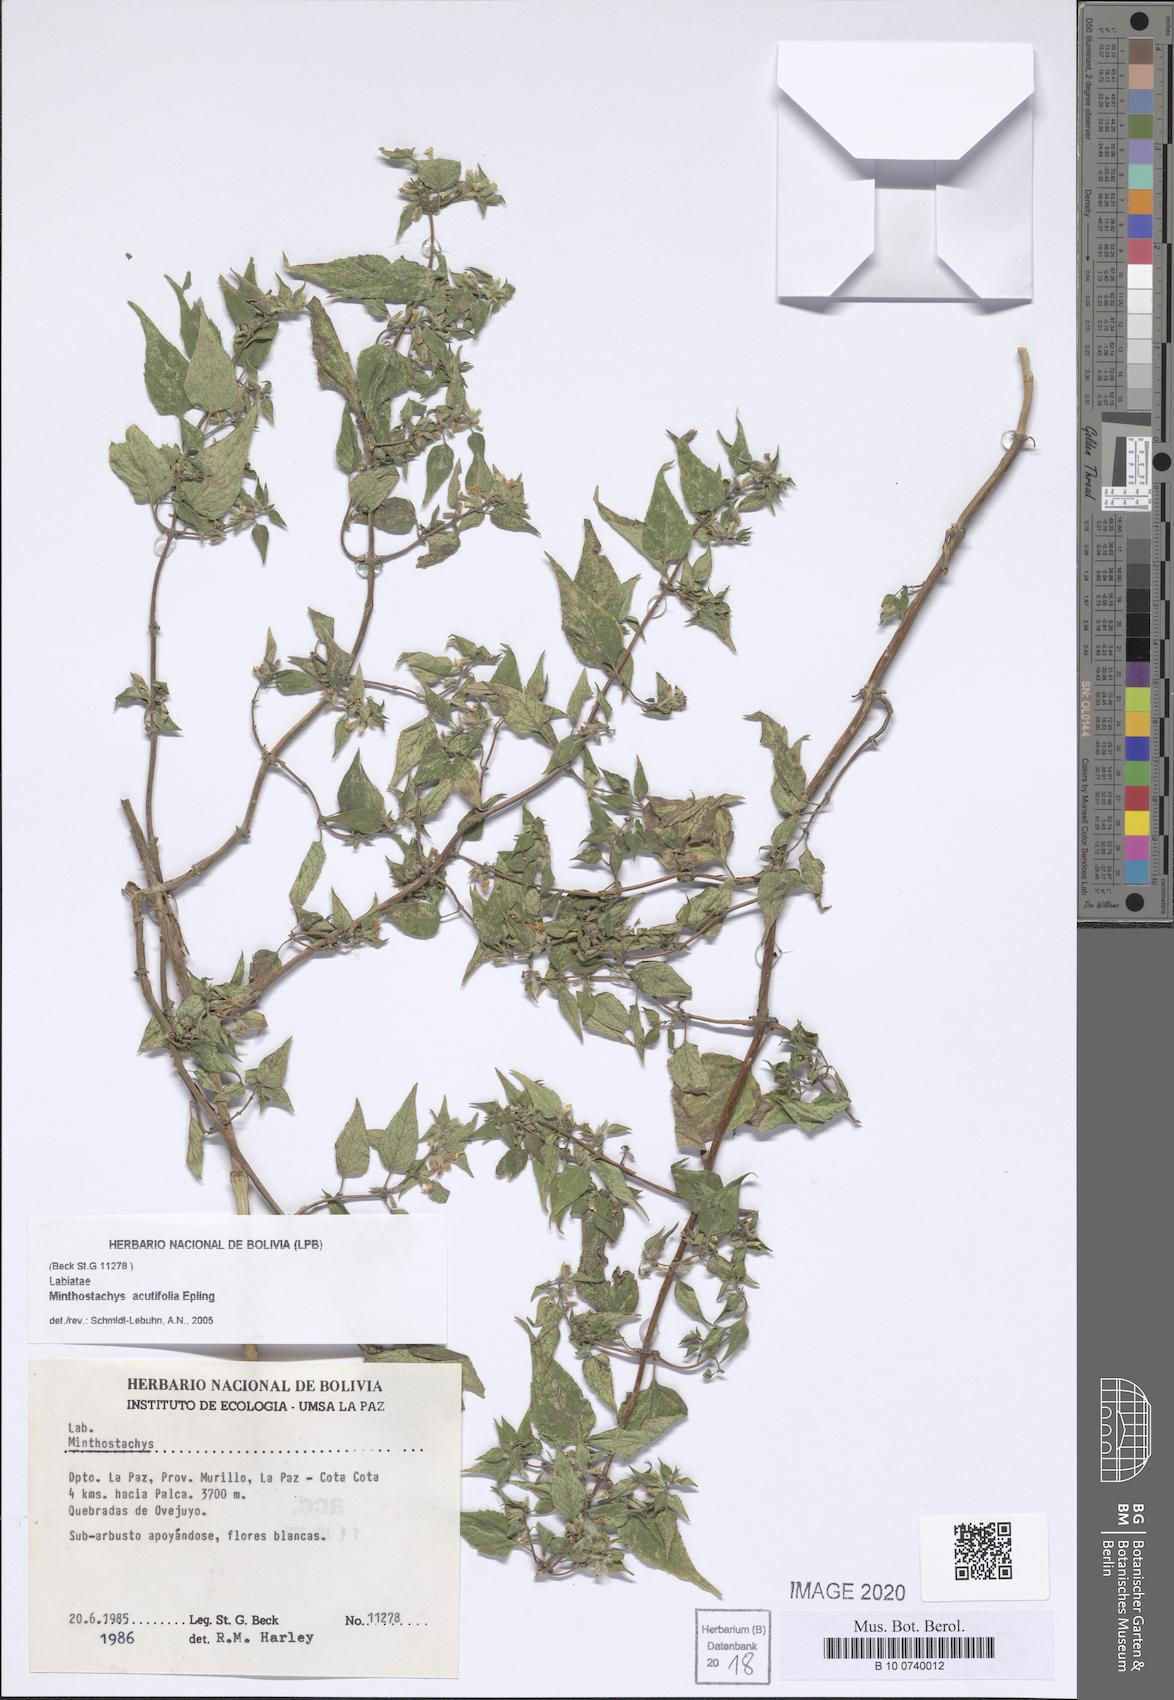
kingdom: Plantae
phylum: Tracheophyta
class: Magnoliopsida
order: Lamiales
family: Lamiaceae
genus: Minthostachys
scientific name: Minthostachys acutifolia
